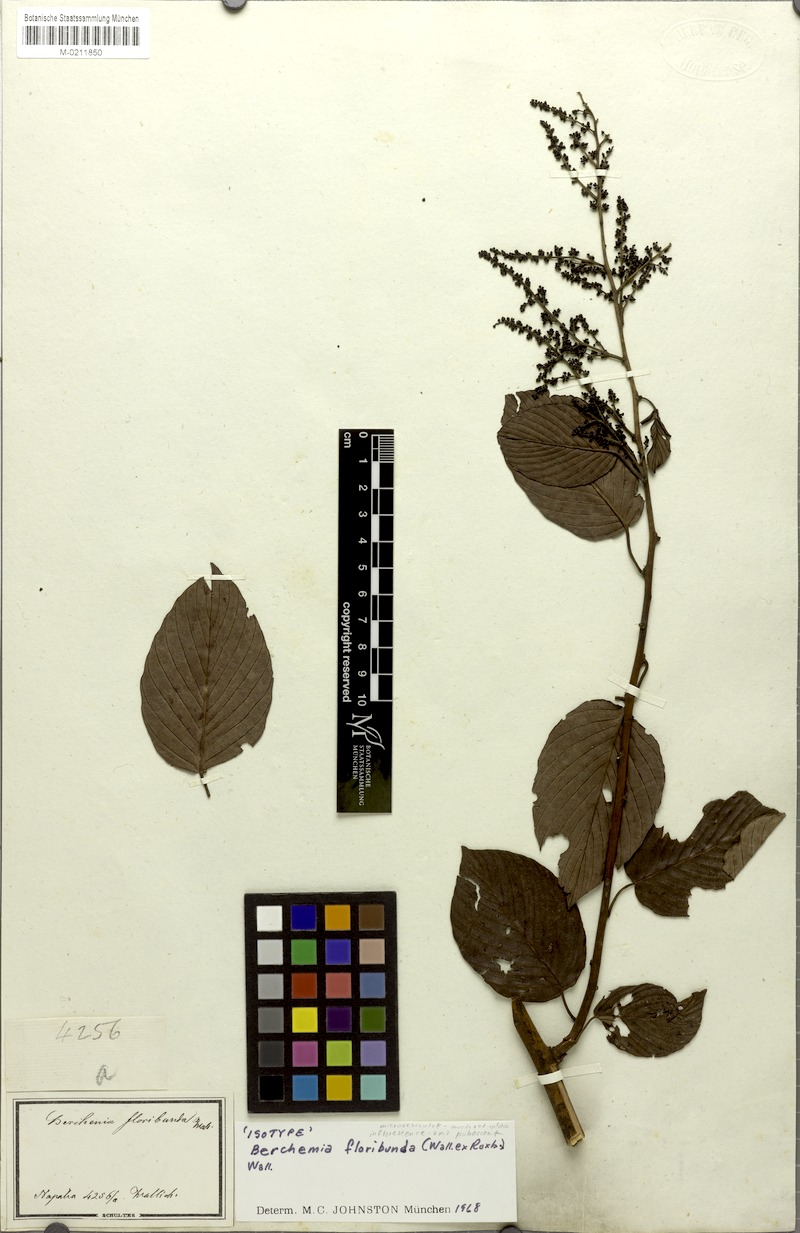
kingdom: Plantae
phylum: Tracheophyta
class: Magnoliopsida
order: Rosales
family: Rhamnaceae
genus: Berchemia
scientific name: Berchemia floribunda
